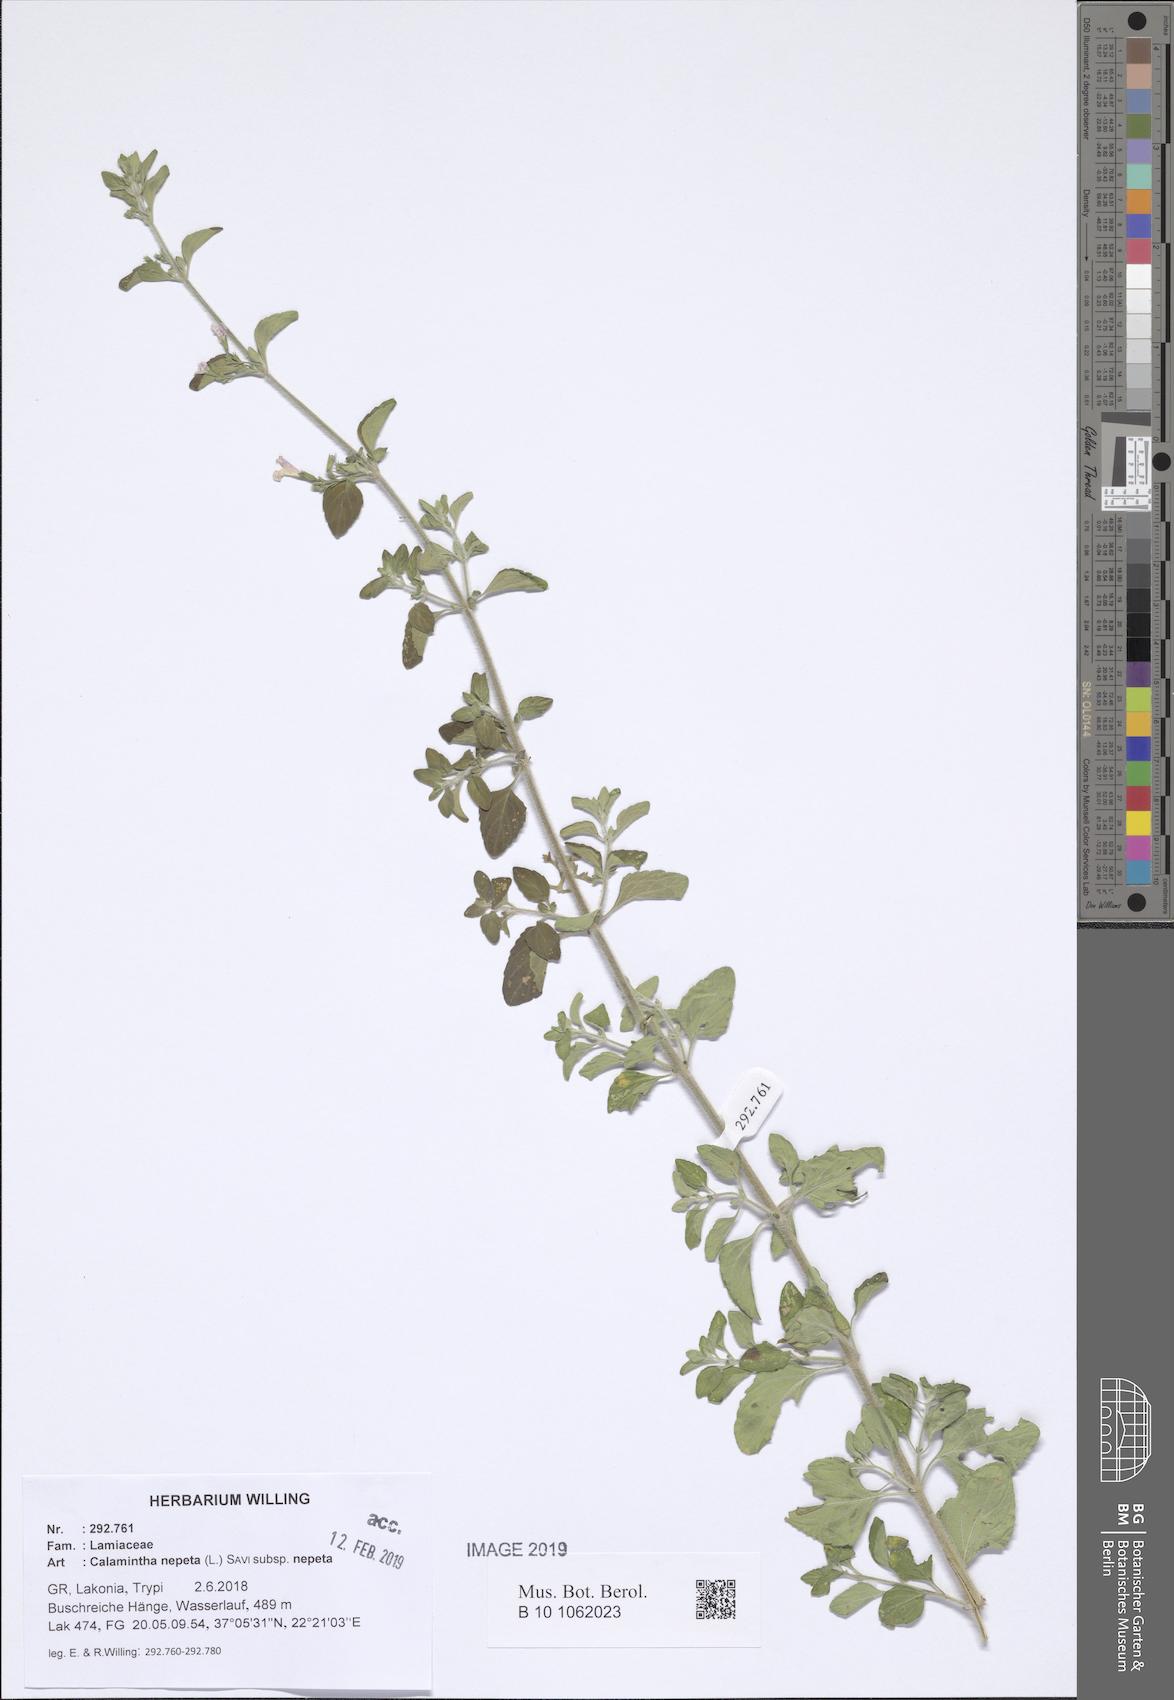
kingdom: Plantae
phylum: Tracheophyta
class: Magnoliopsida
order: Lamiales
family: Lamiaceae
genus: Clinopodium
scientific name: Clinopodium nepeta
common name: Lesser calamint
